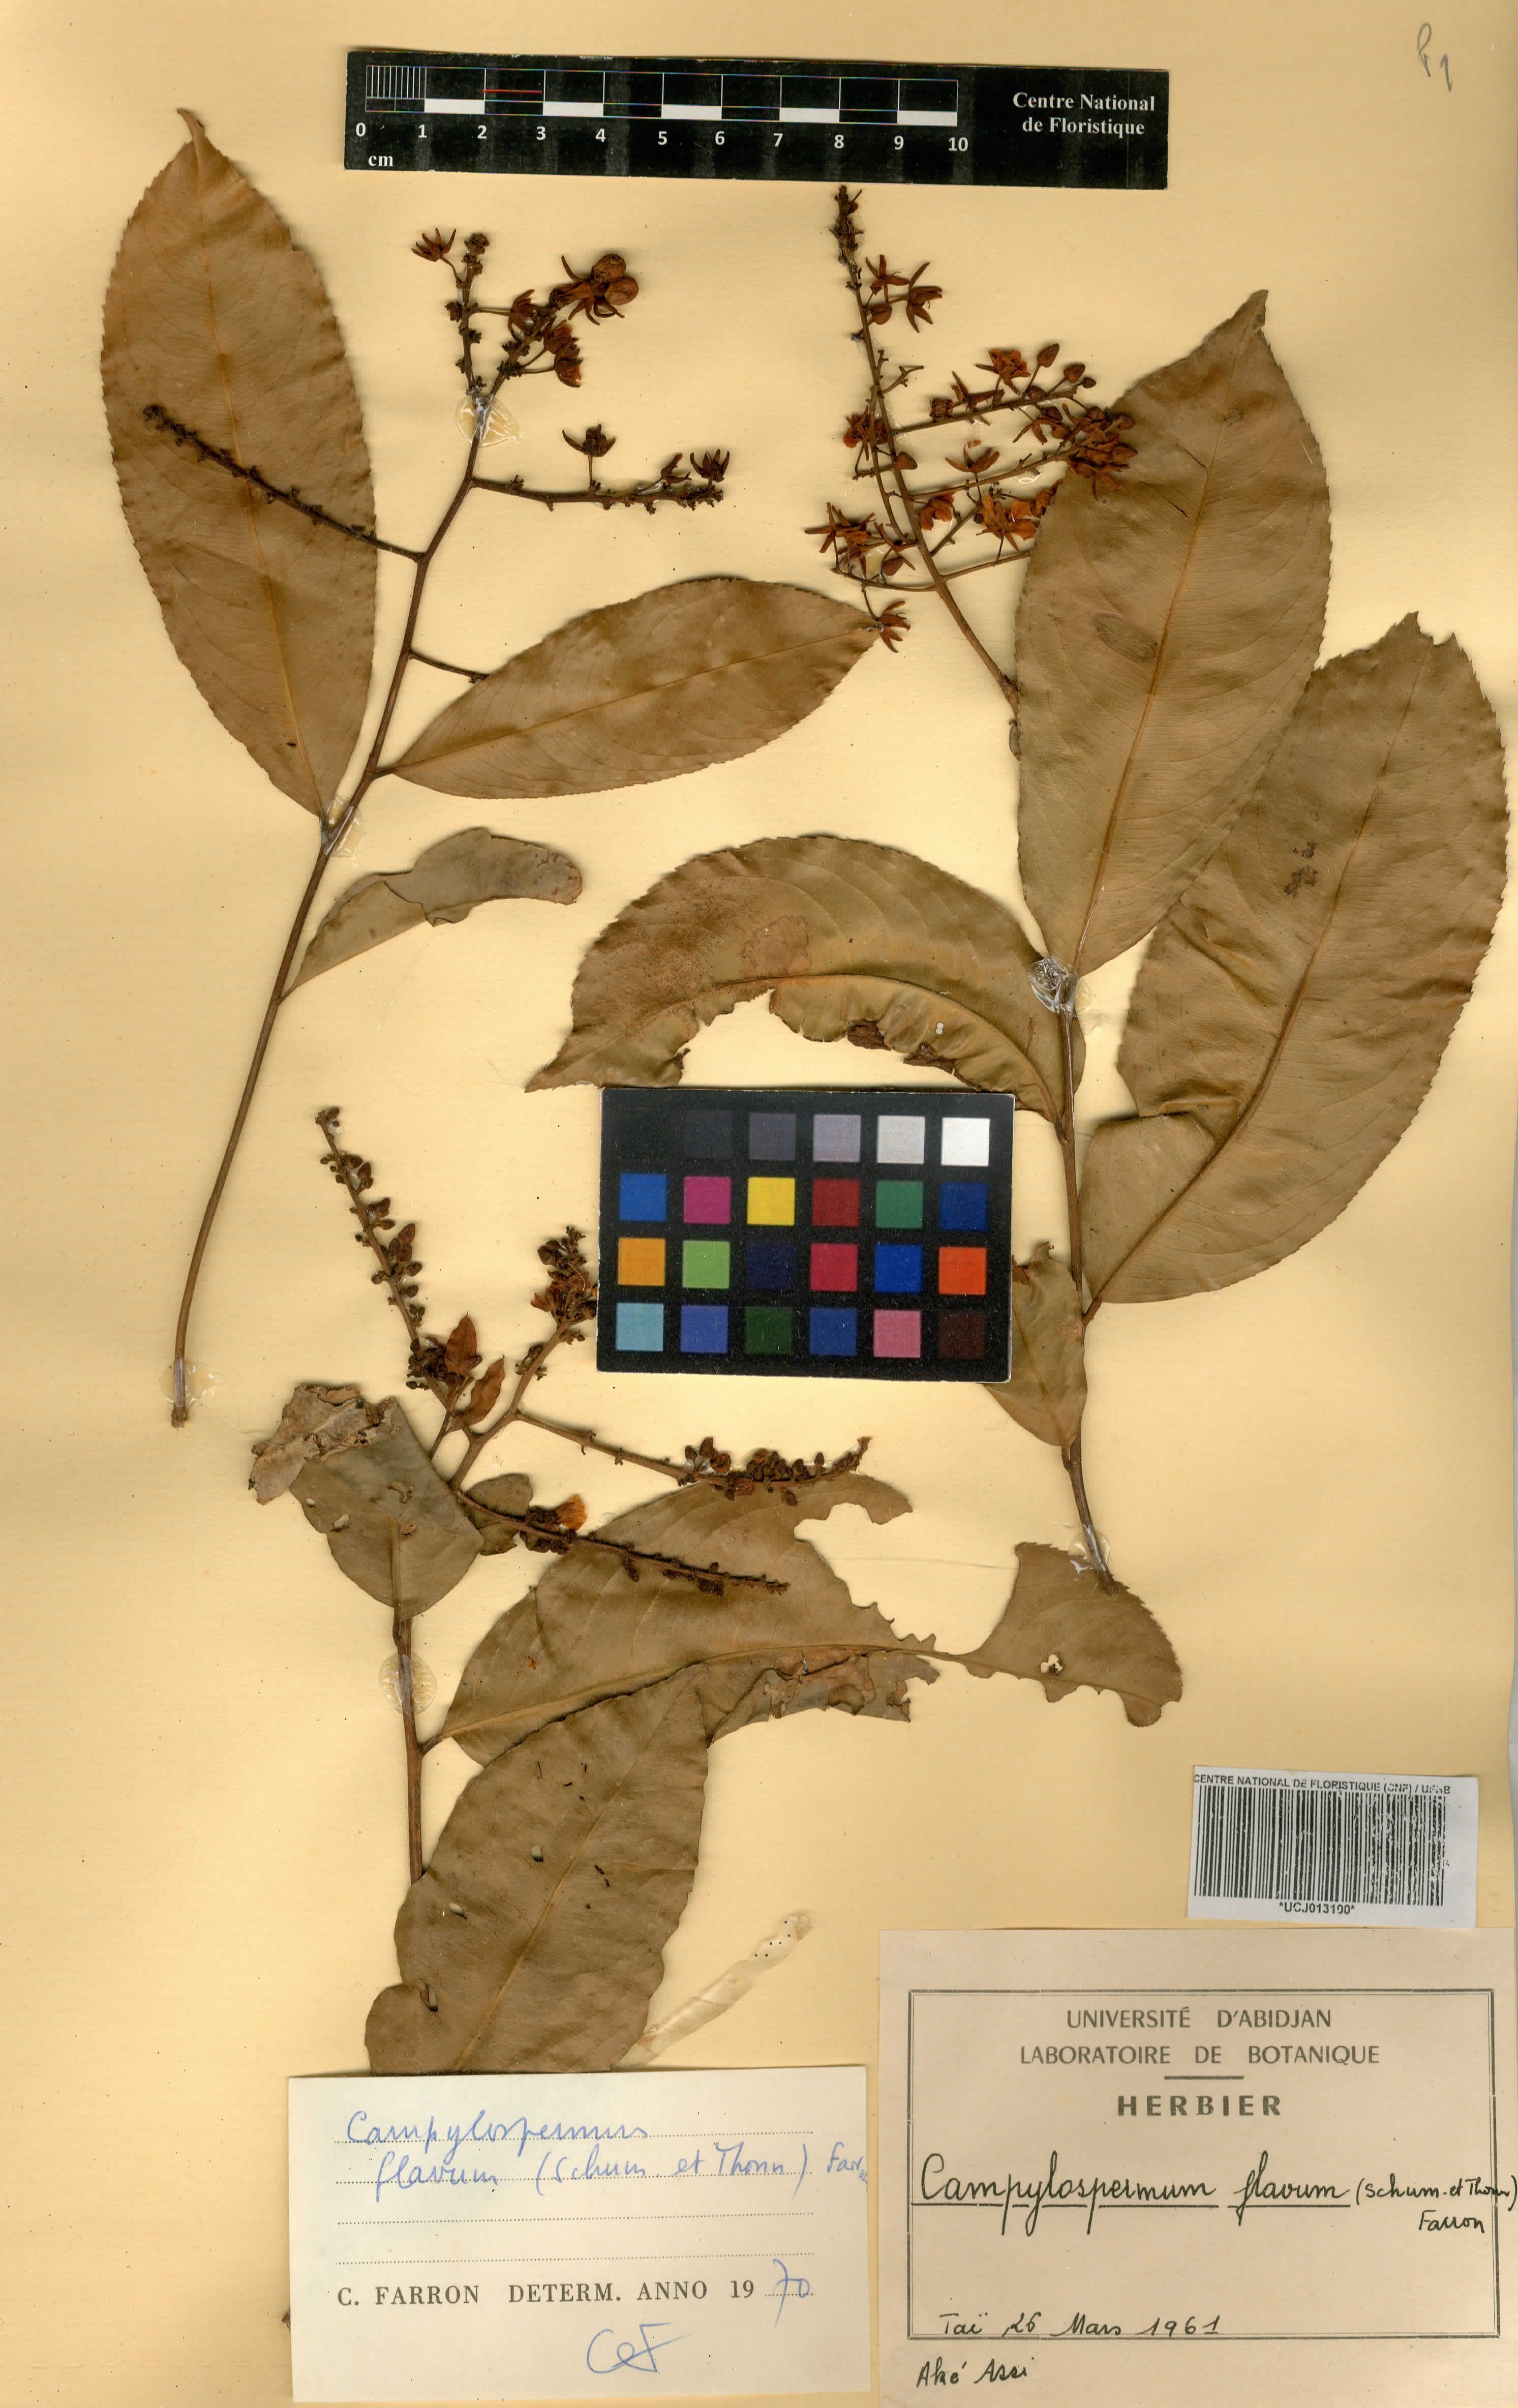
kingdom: Plantae
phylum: Tracheophyta
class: Magnoliopsida
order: Malpighiales
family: Ochnaceae
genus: Campylospermum
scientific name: Campylospermum flavum
